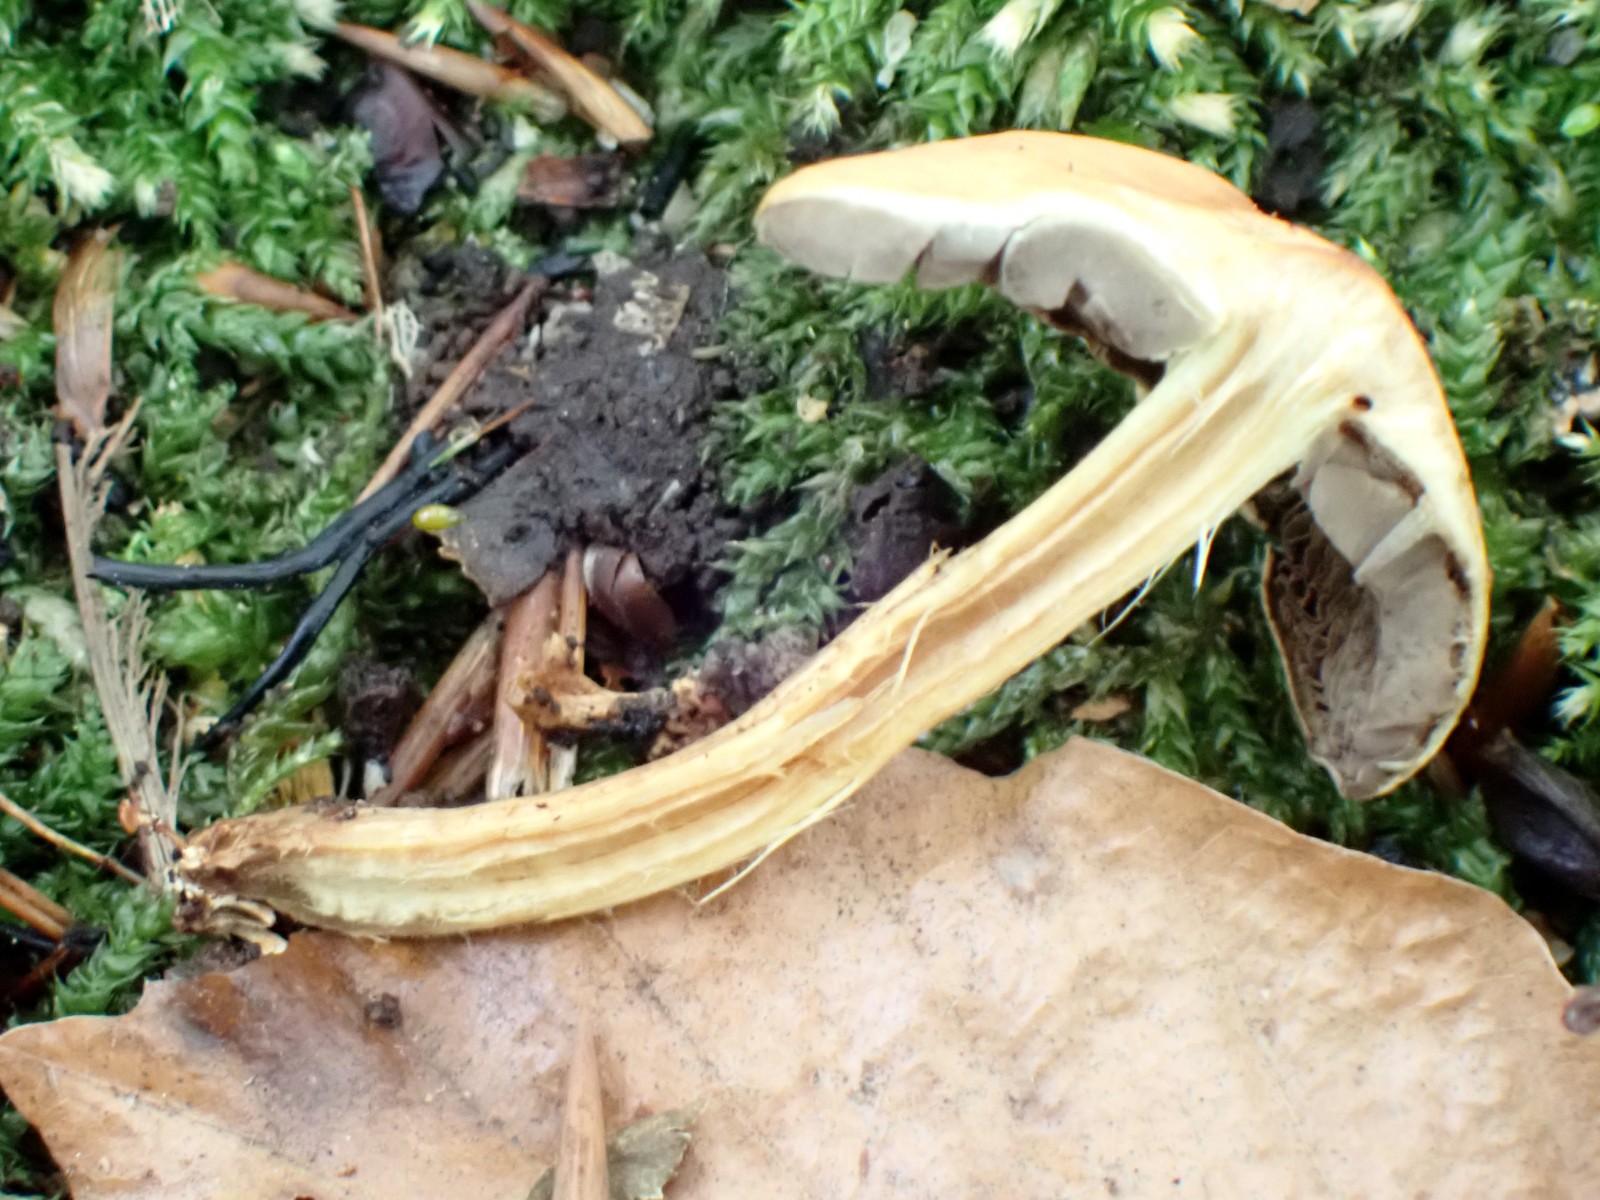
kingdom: Fungi
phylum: Basidiomycota
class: Agaricomycetes
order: Agaricales
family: Strophariaceae
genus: Hypholoma
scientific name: Hypholoma
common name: svovlhat
